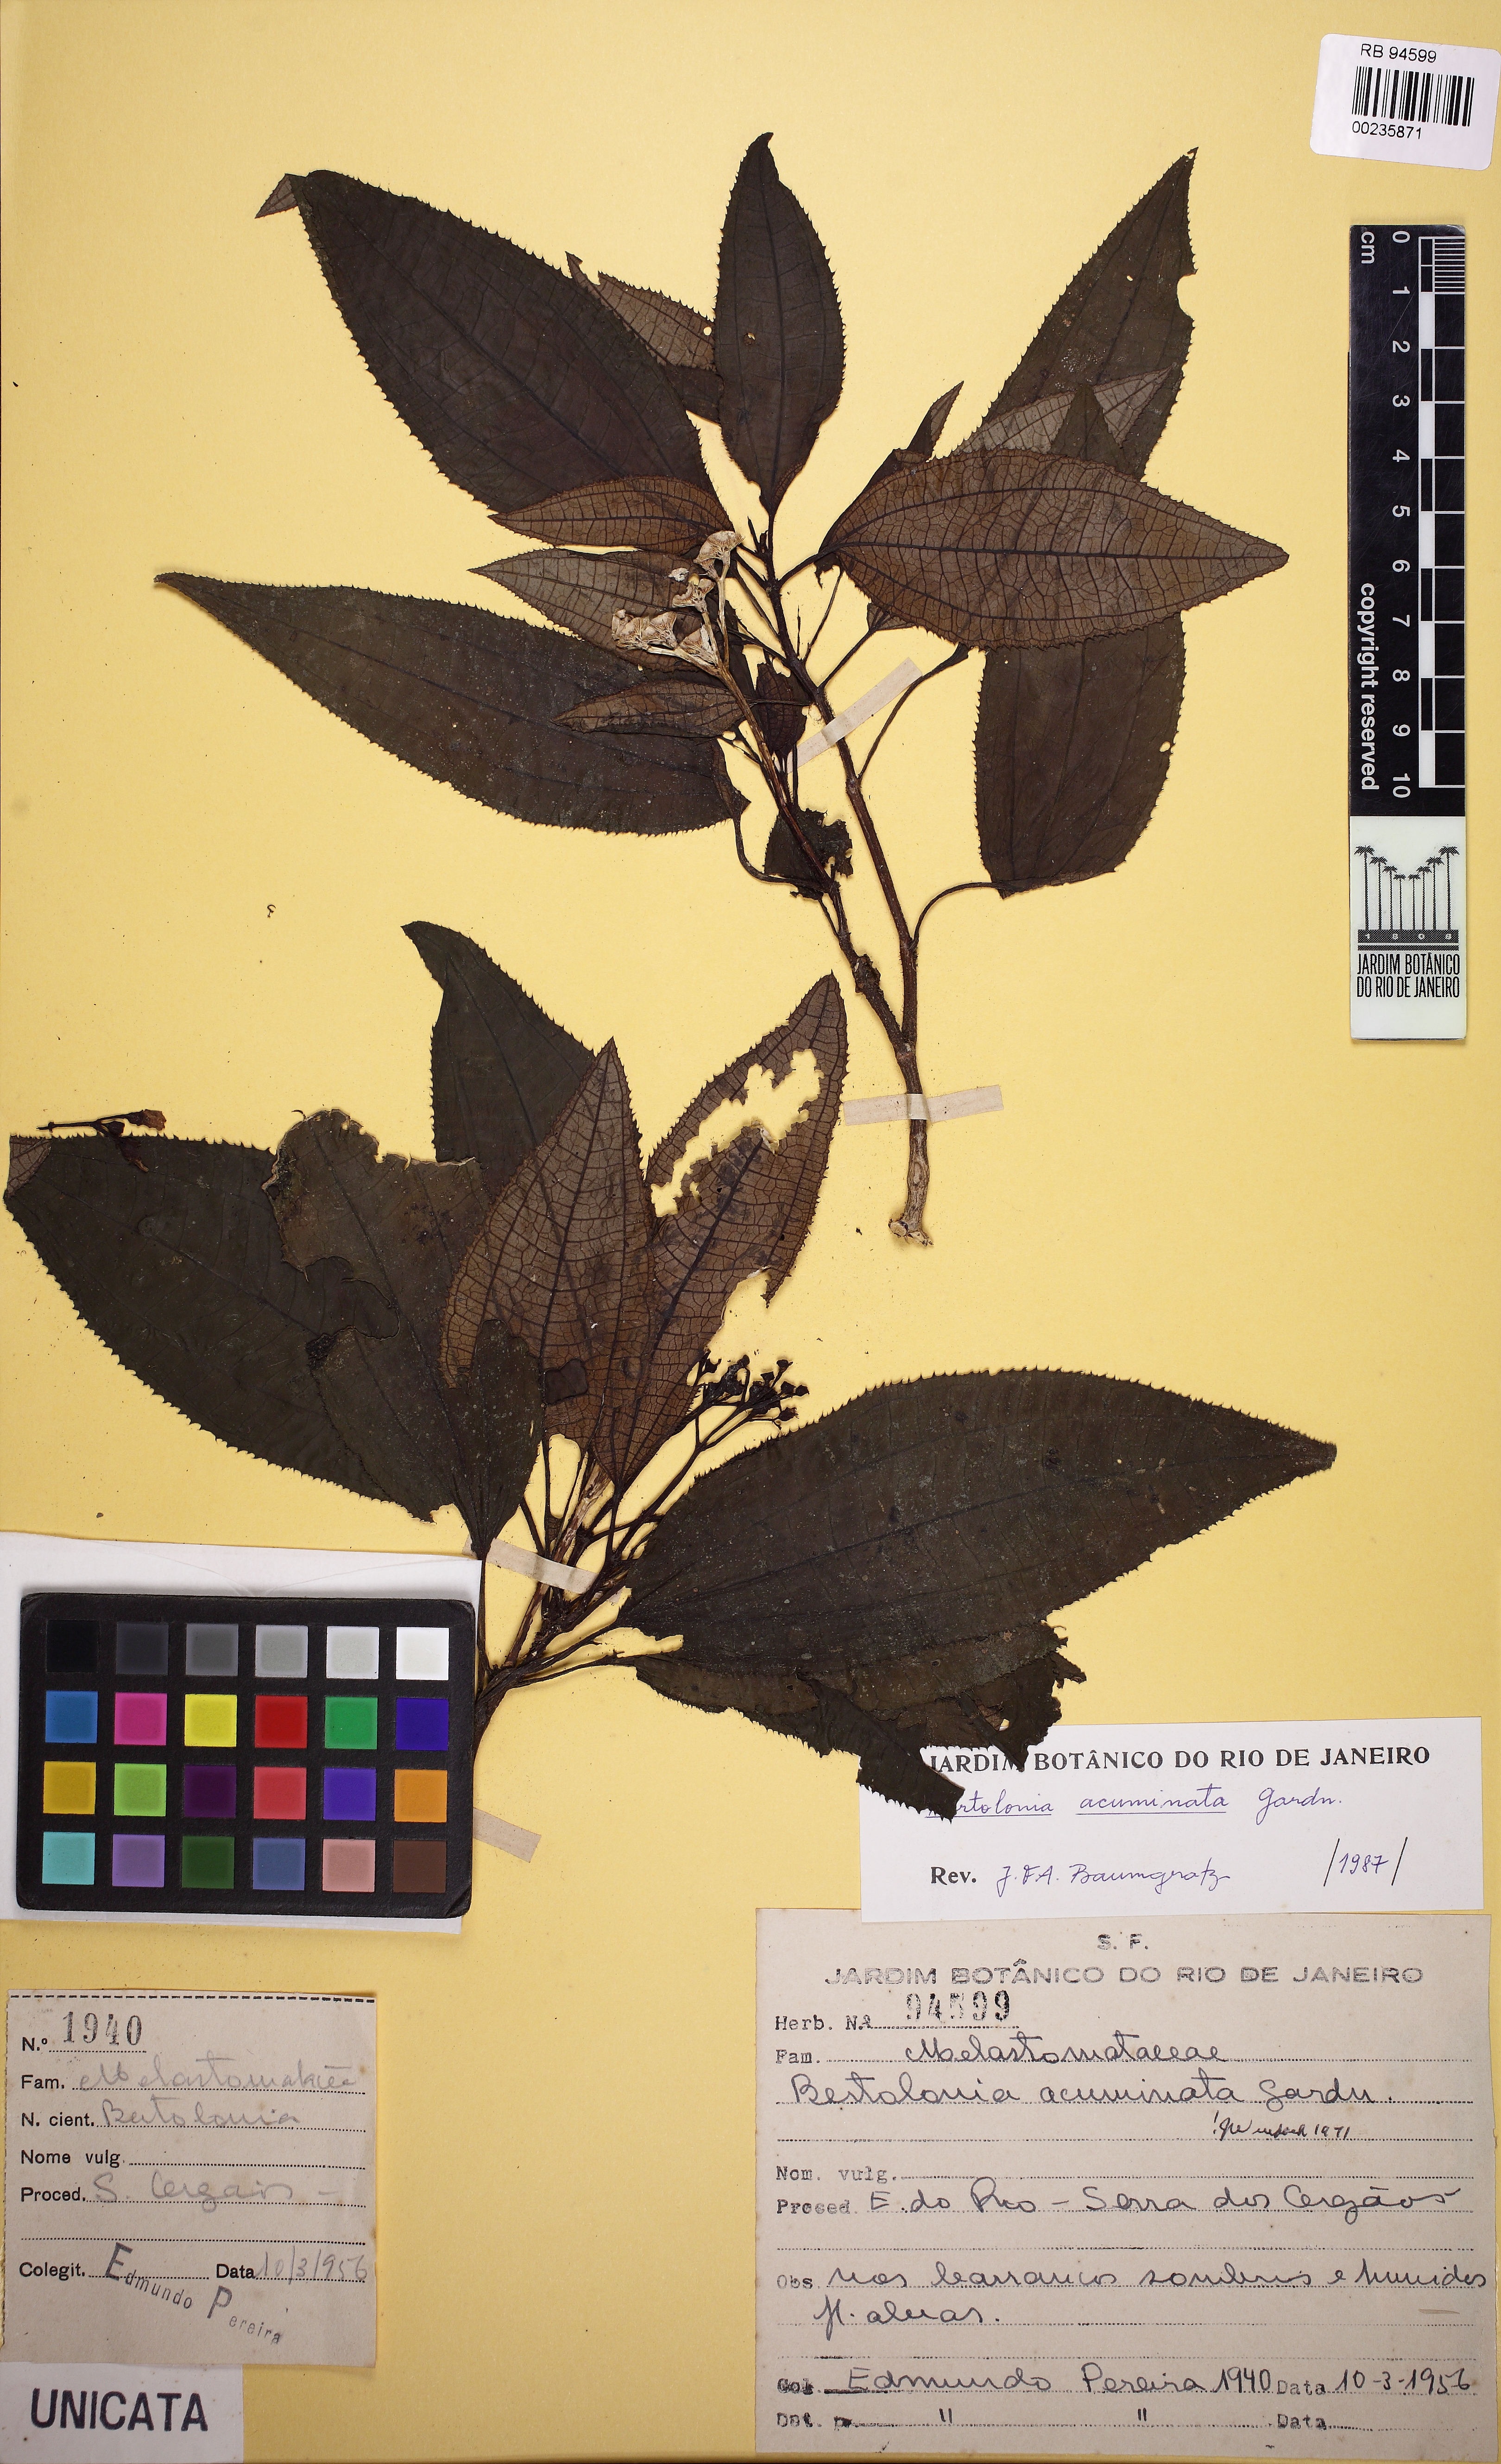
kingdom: Plantae
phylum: Tracheophyta
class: Magnoliopsida
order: Myrtales
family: Melastomataceae
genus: Bertolonia
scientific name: Bertolonia acuminata
